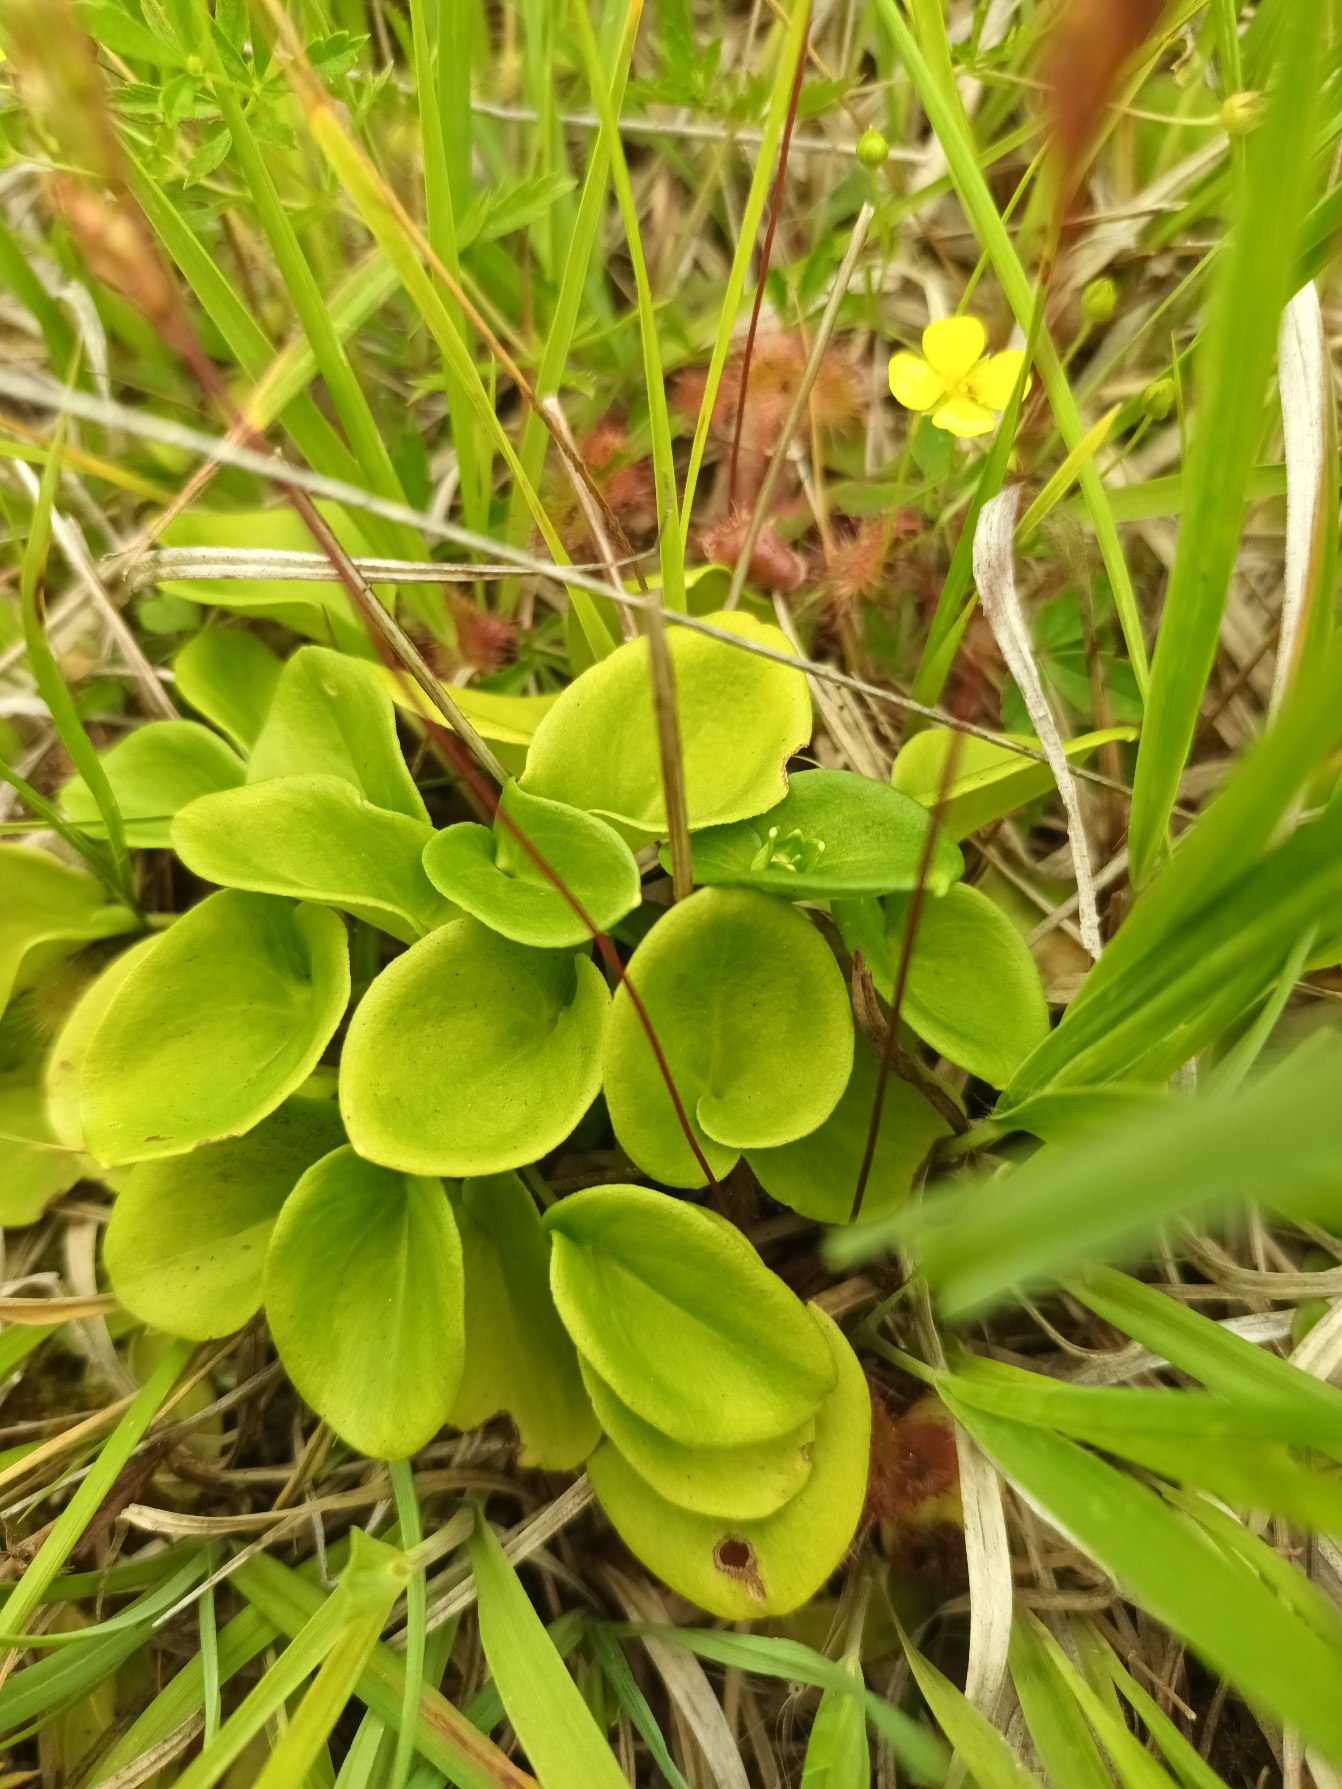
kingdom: Plantae
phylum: Tracheophyta
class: Magnoliopsida
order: Celastrales
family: Parnassiaceae
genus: Parnassia
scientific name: Parnassia palustris
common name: Leverurt
